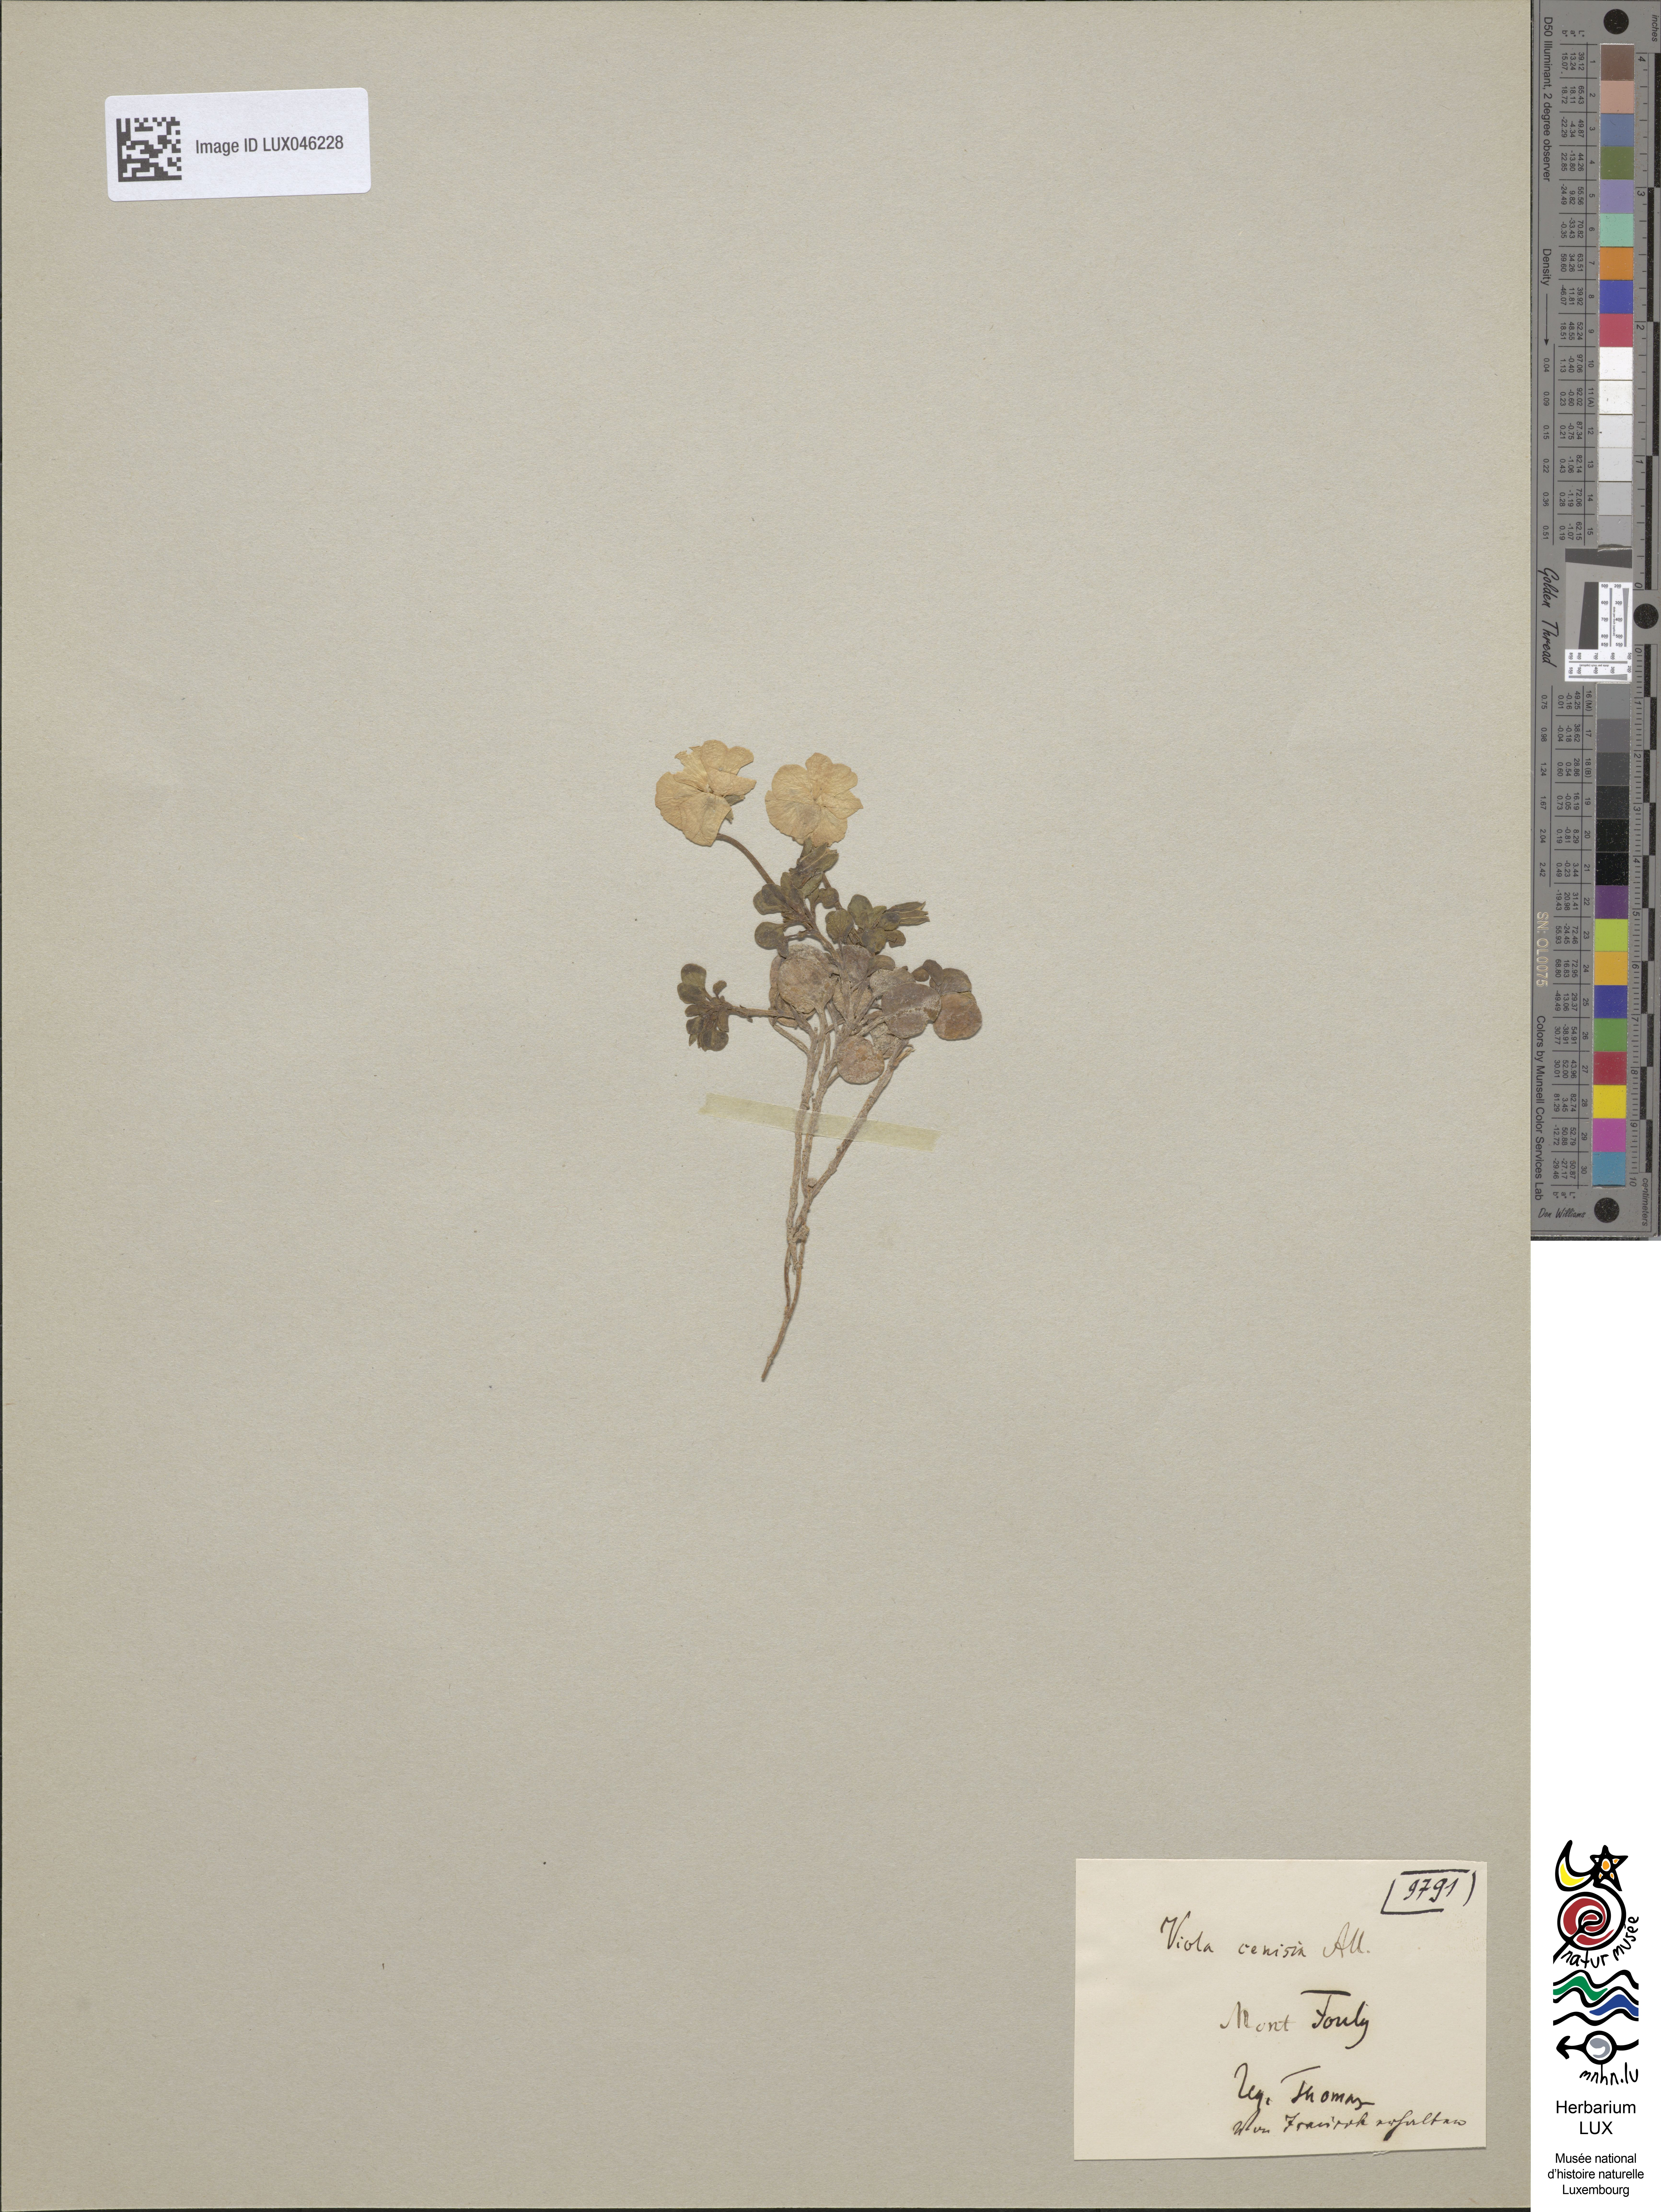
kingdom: Plantae
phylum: Tracheophyta
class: Magnoliopsida
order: Malpighiales
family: Violaceae
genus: Viola
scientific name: Viola cenisia
